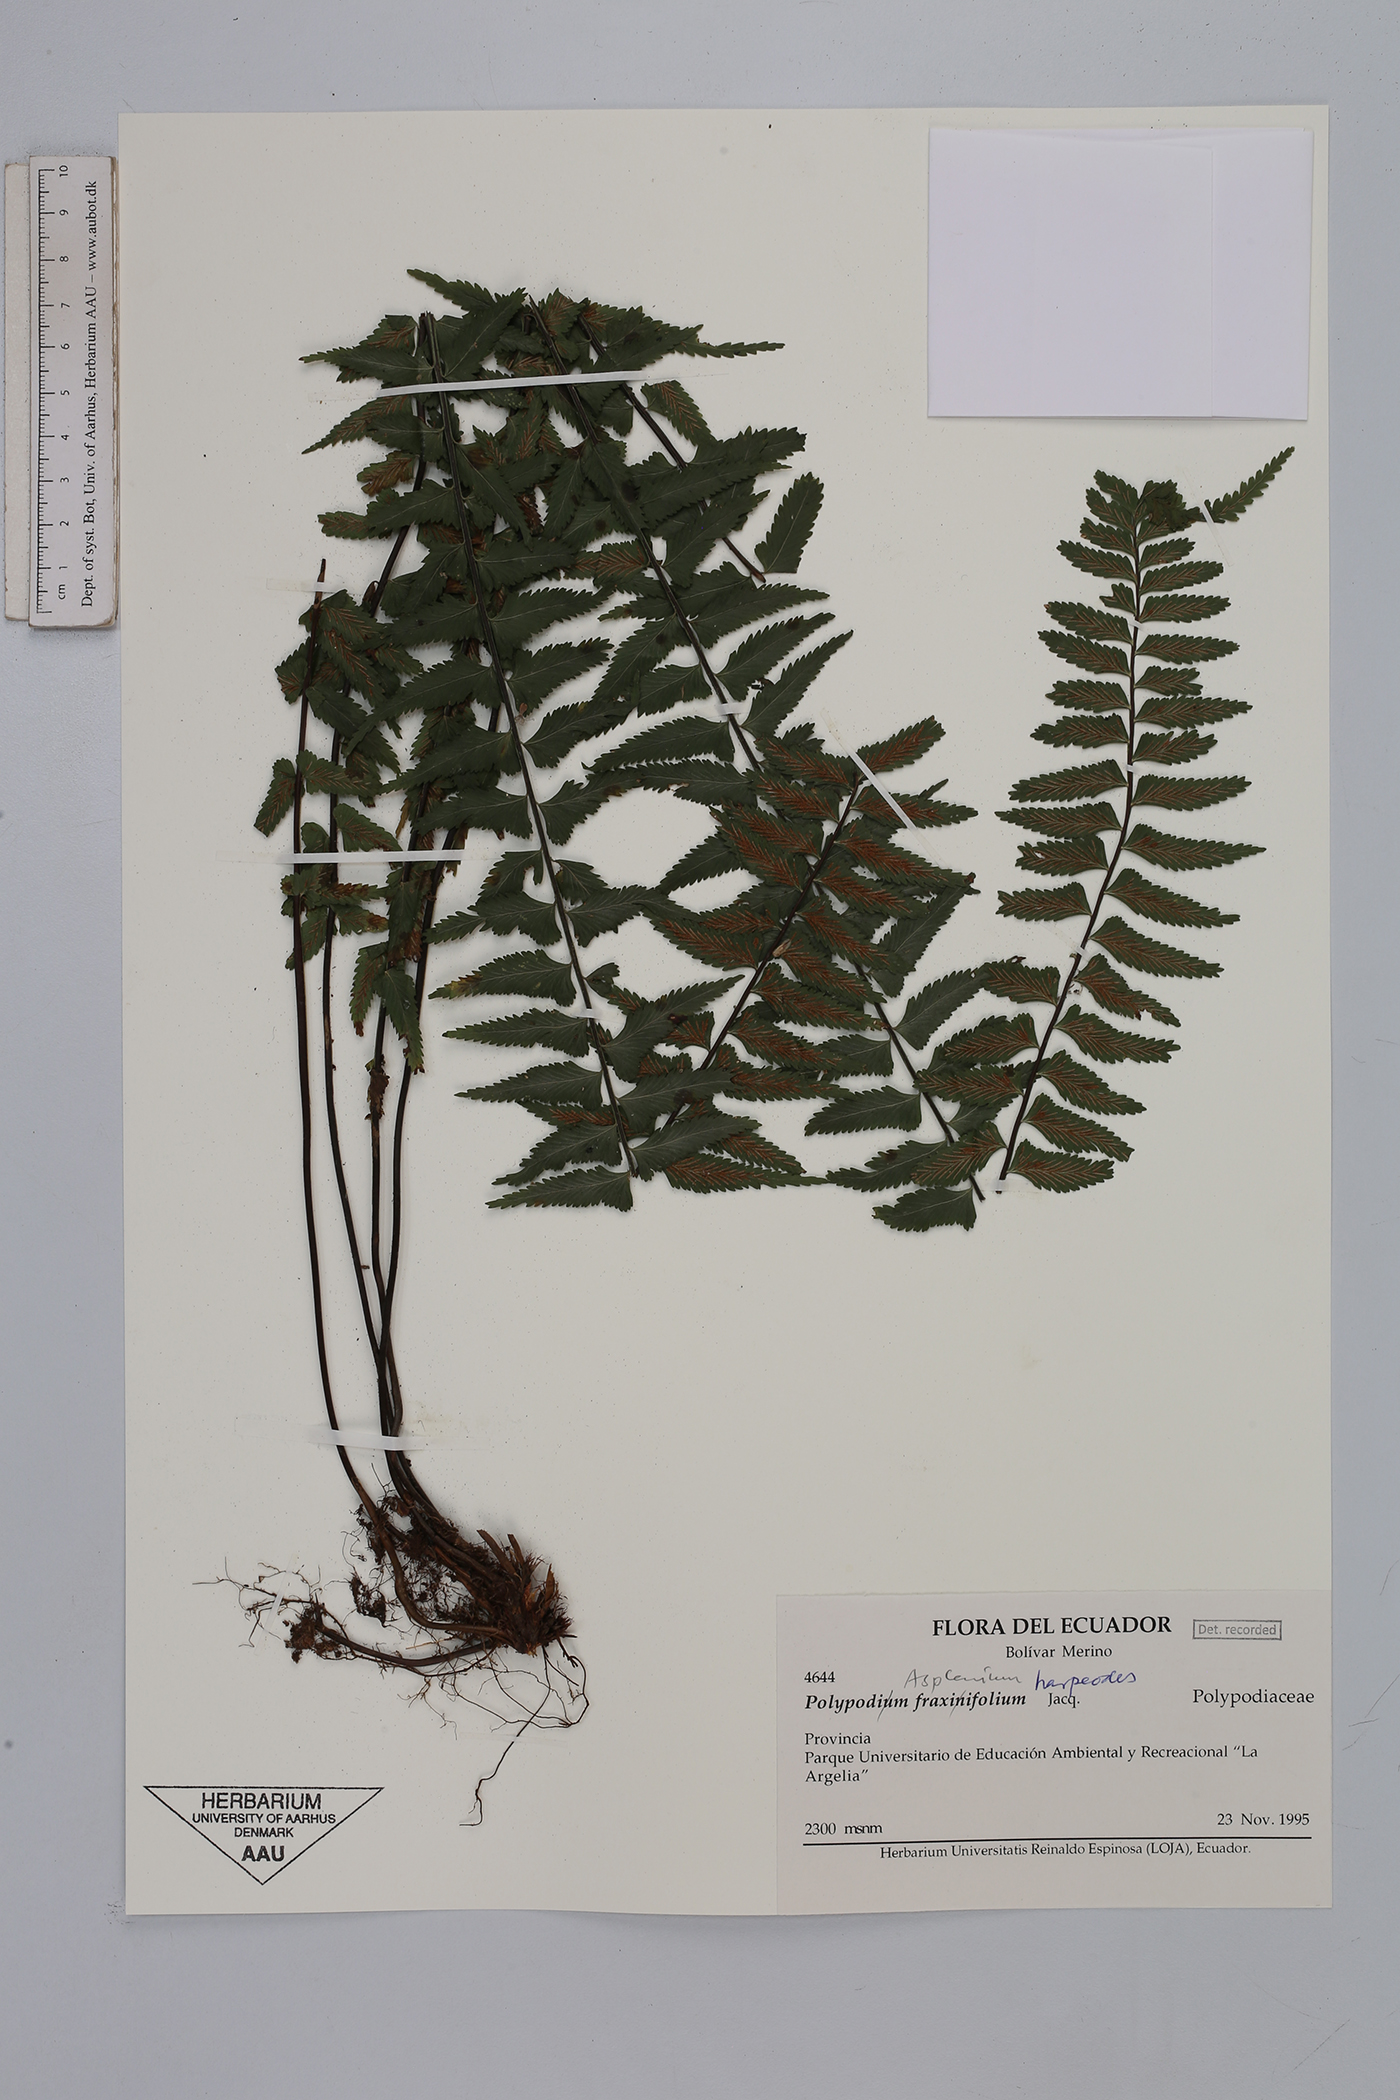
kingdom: Plantae
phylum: Tracheophyta
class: Polypodiopsida
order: Polypodiales
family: Aspleniaceae
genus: Asplenium
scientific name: Asplenium harpeodes
